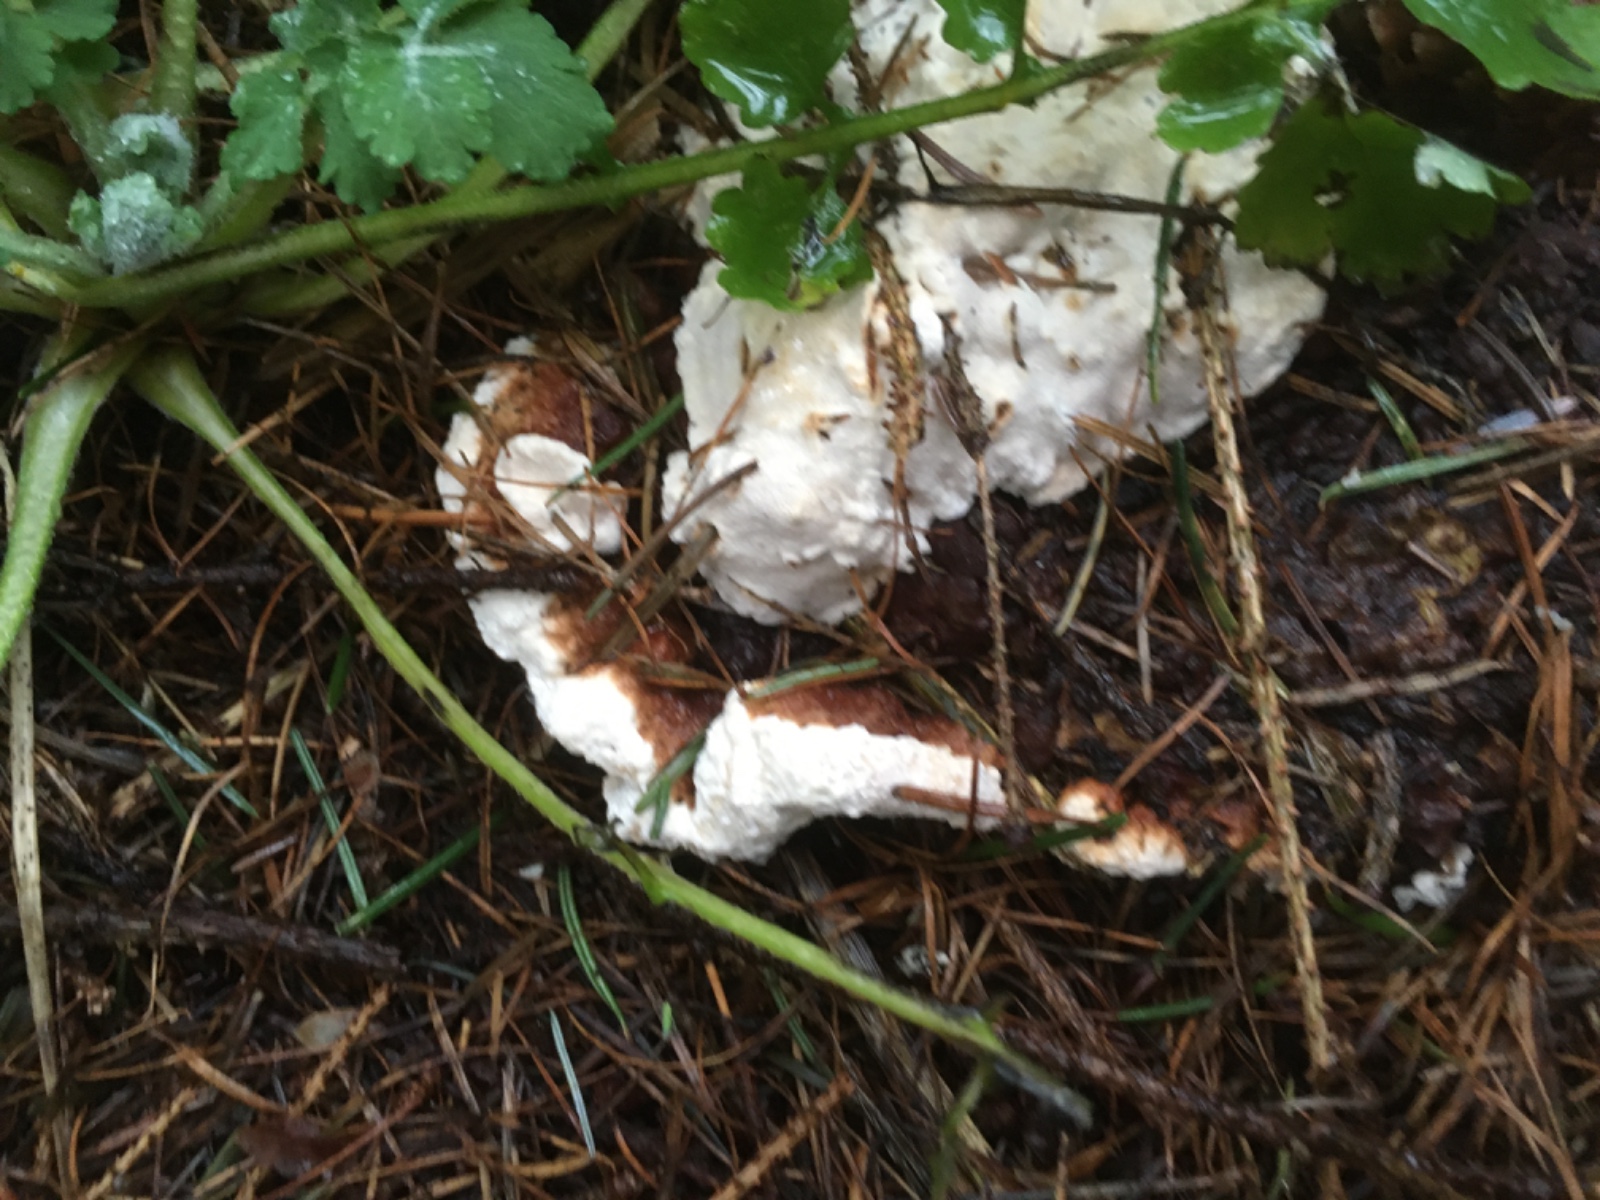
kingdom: Fungi
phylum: Basidiomycota
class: Agaricomycetes
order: Russulales
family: Bondarzewiaceae
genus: Heterobasidion
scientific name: Heterobasidion annosum
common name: almindelig rodfordærver
